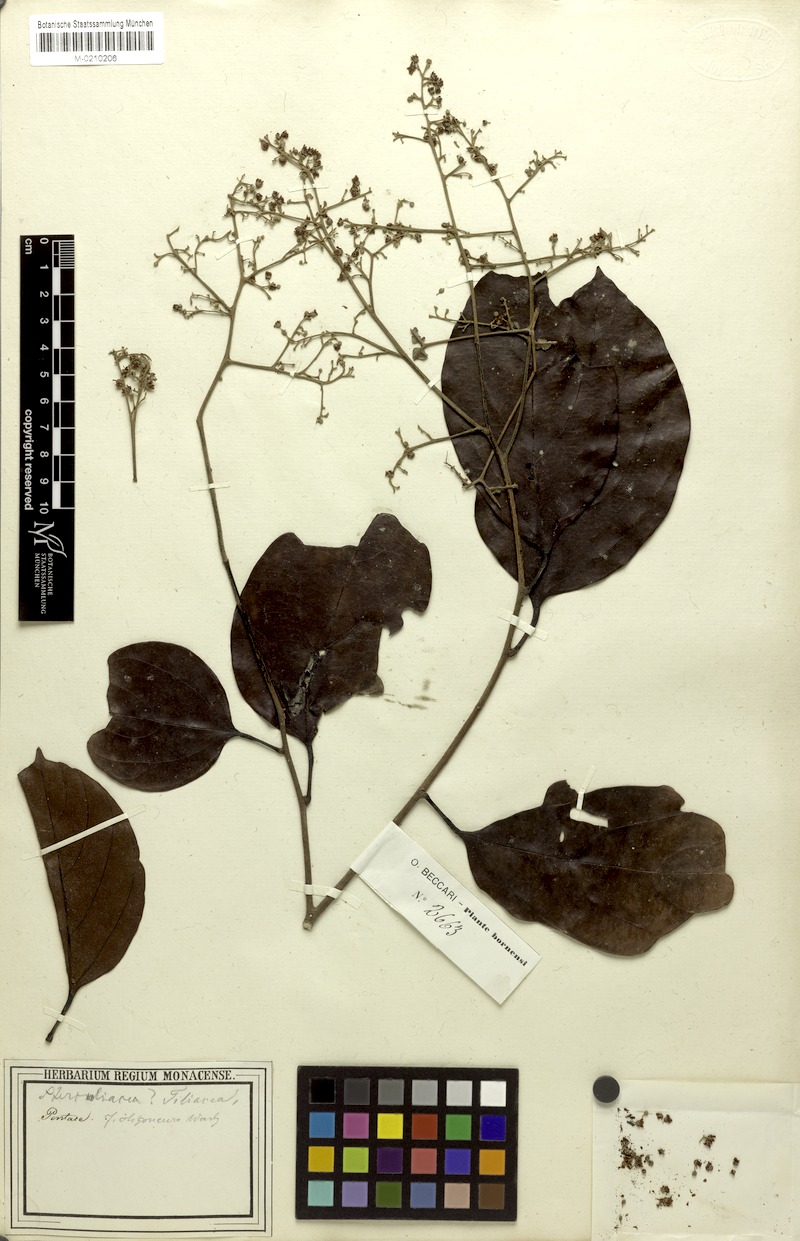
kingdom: Plantae
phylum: Tracheophyta
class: Magnoliopsida
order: Malvales
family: Malvaceae
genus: Pentace
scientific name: Pentace borneensis
